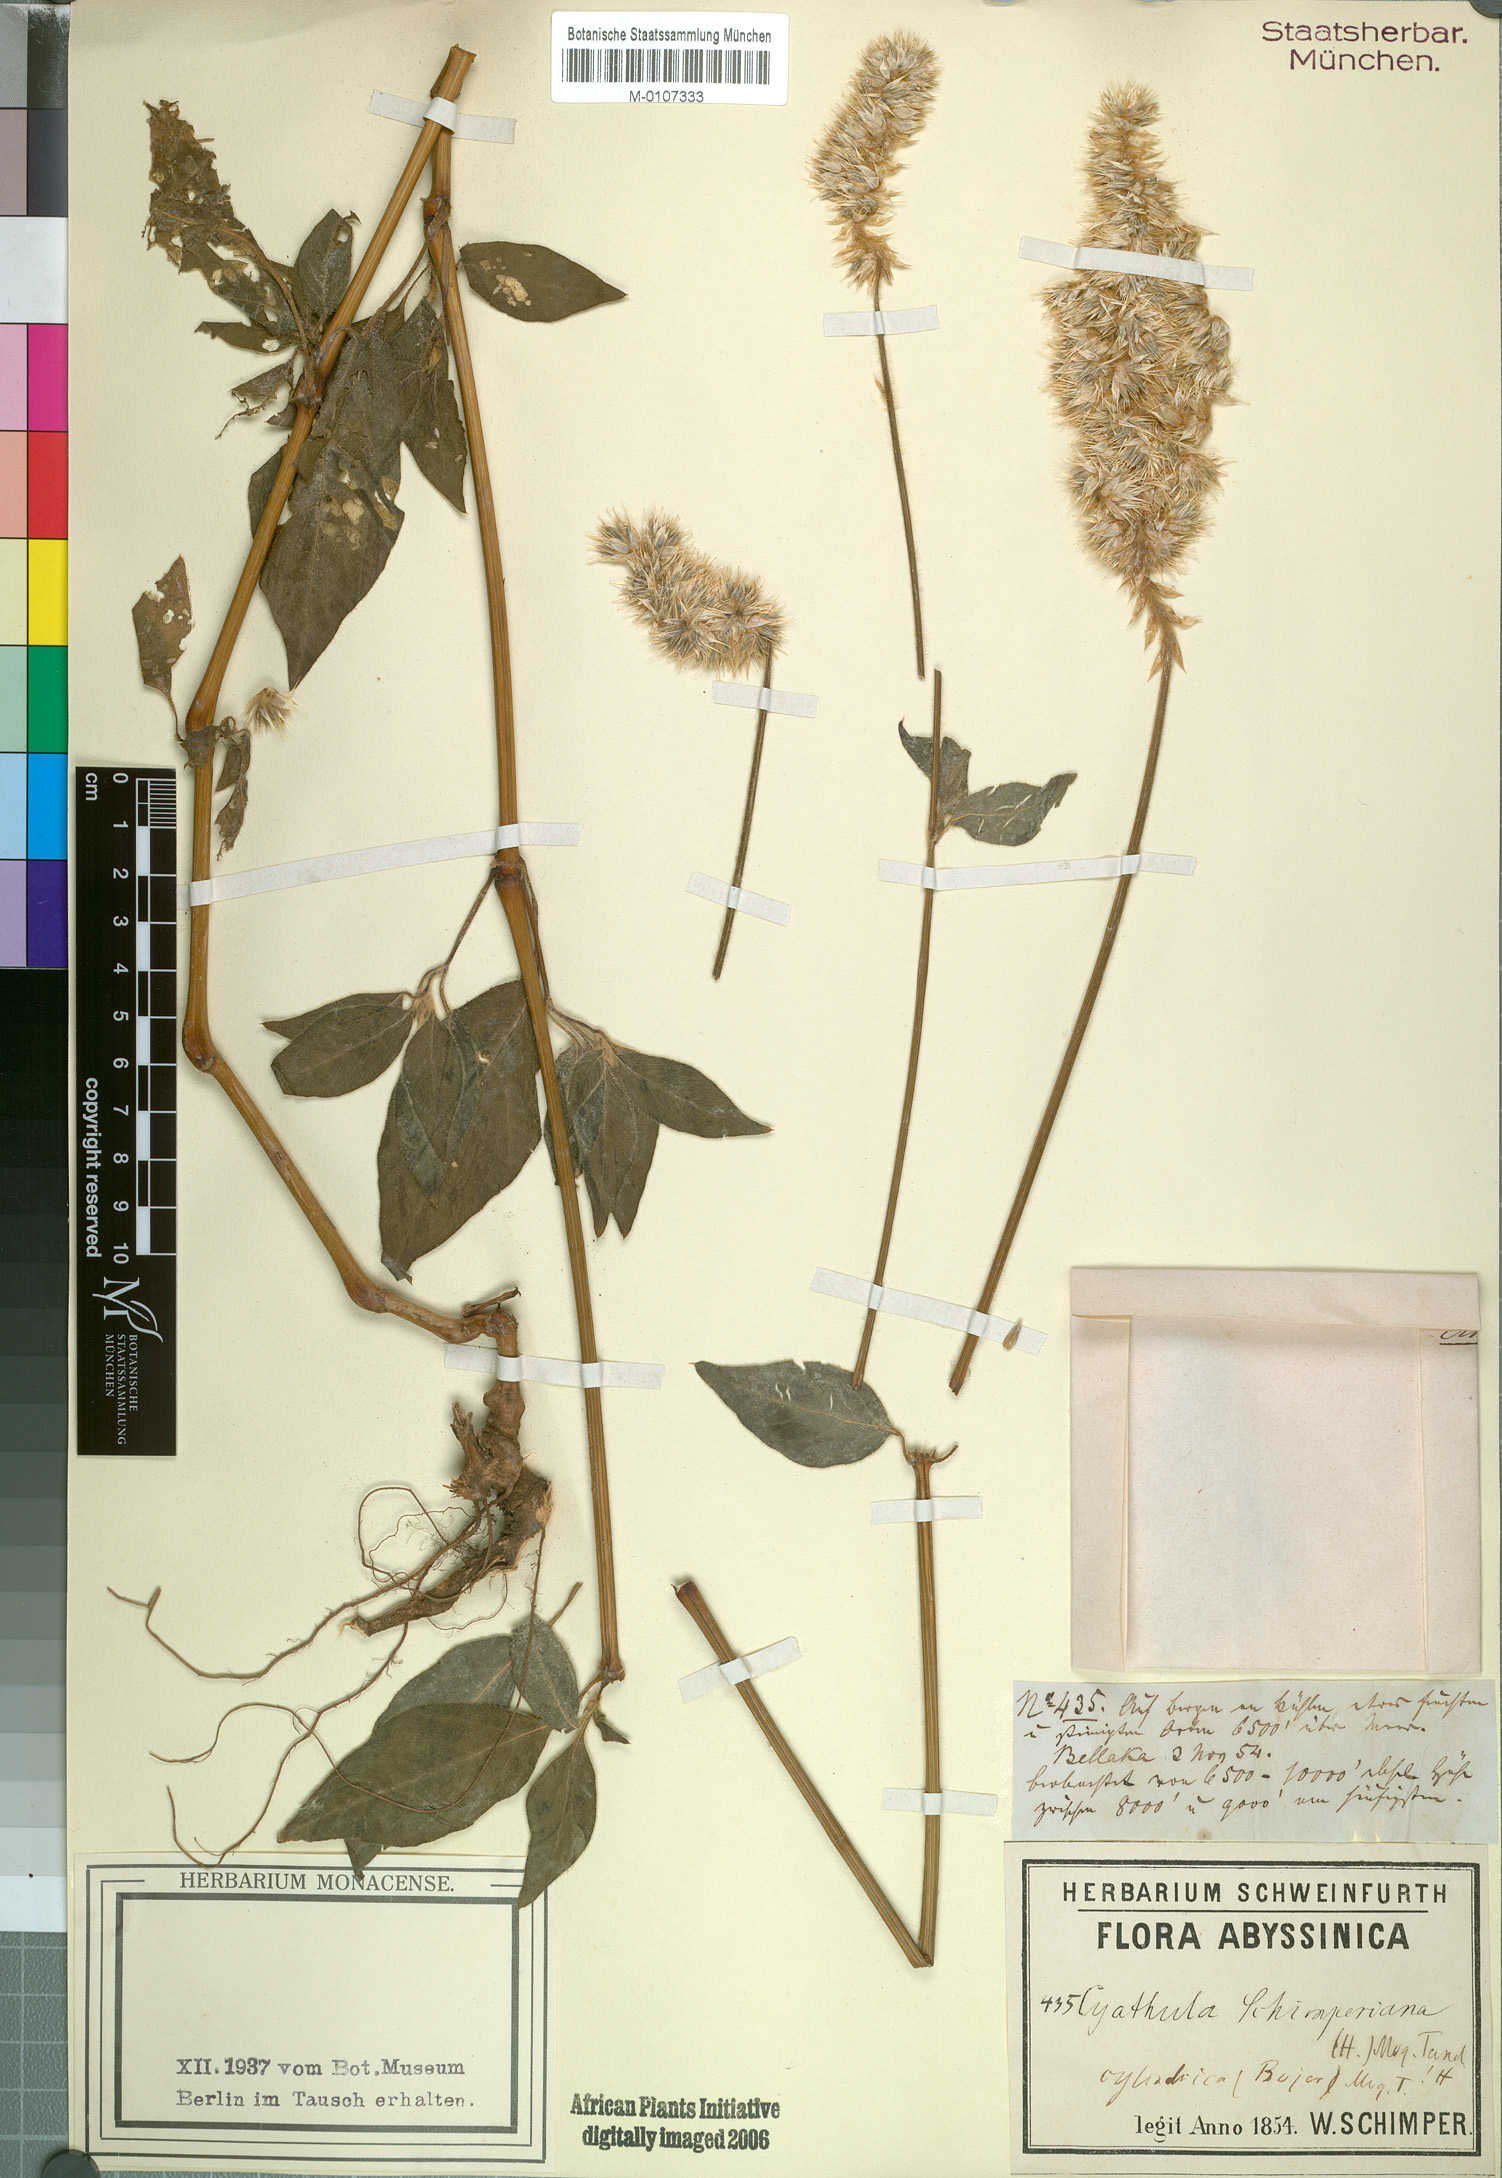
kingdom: Plantae
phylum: Tracheophyta
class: Magnoliopsida
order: Caryophyllales
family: Amaranthaceae
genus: Cyathula
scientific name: Cyathula cylindrica
